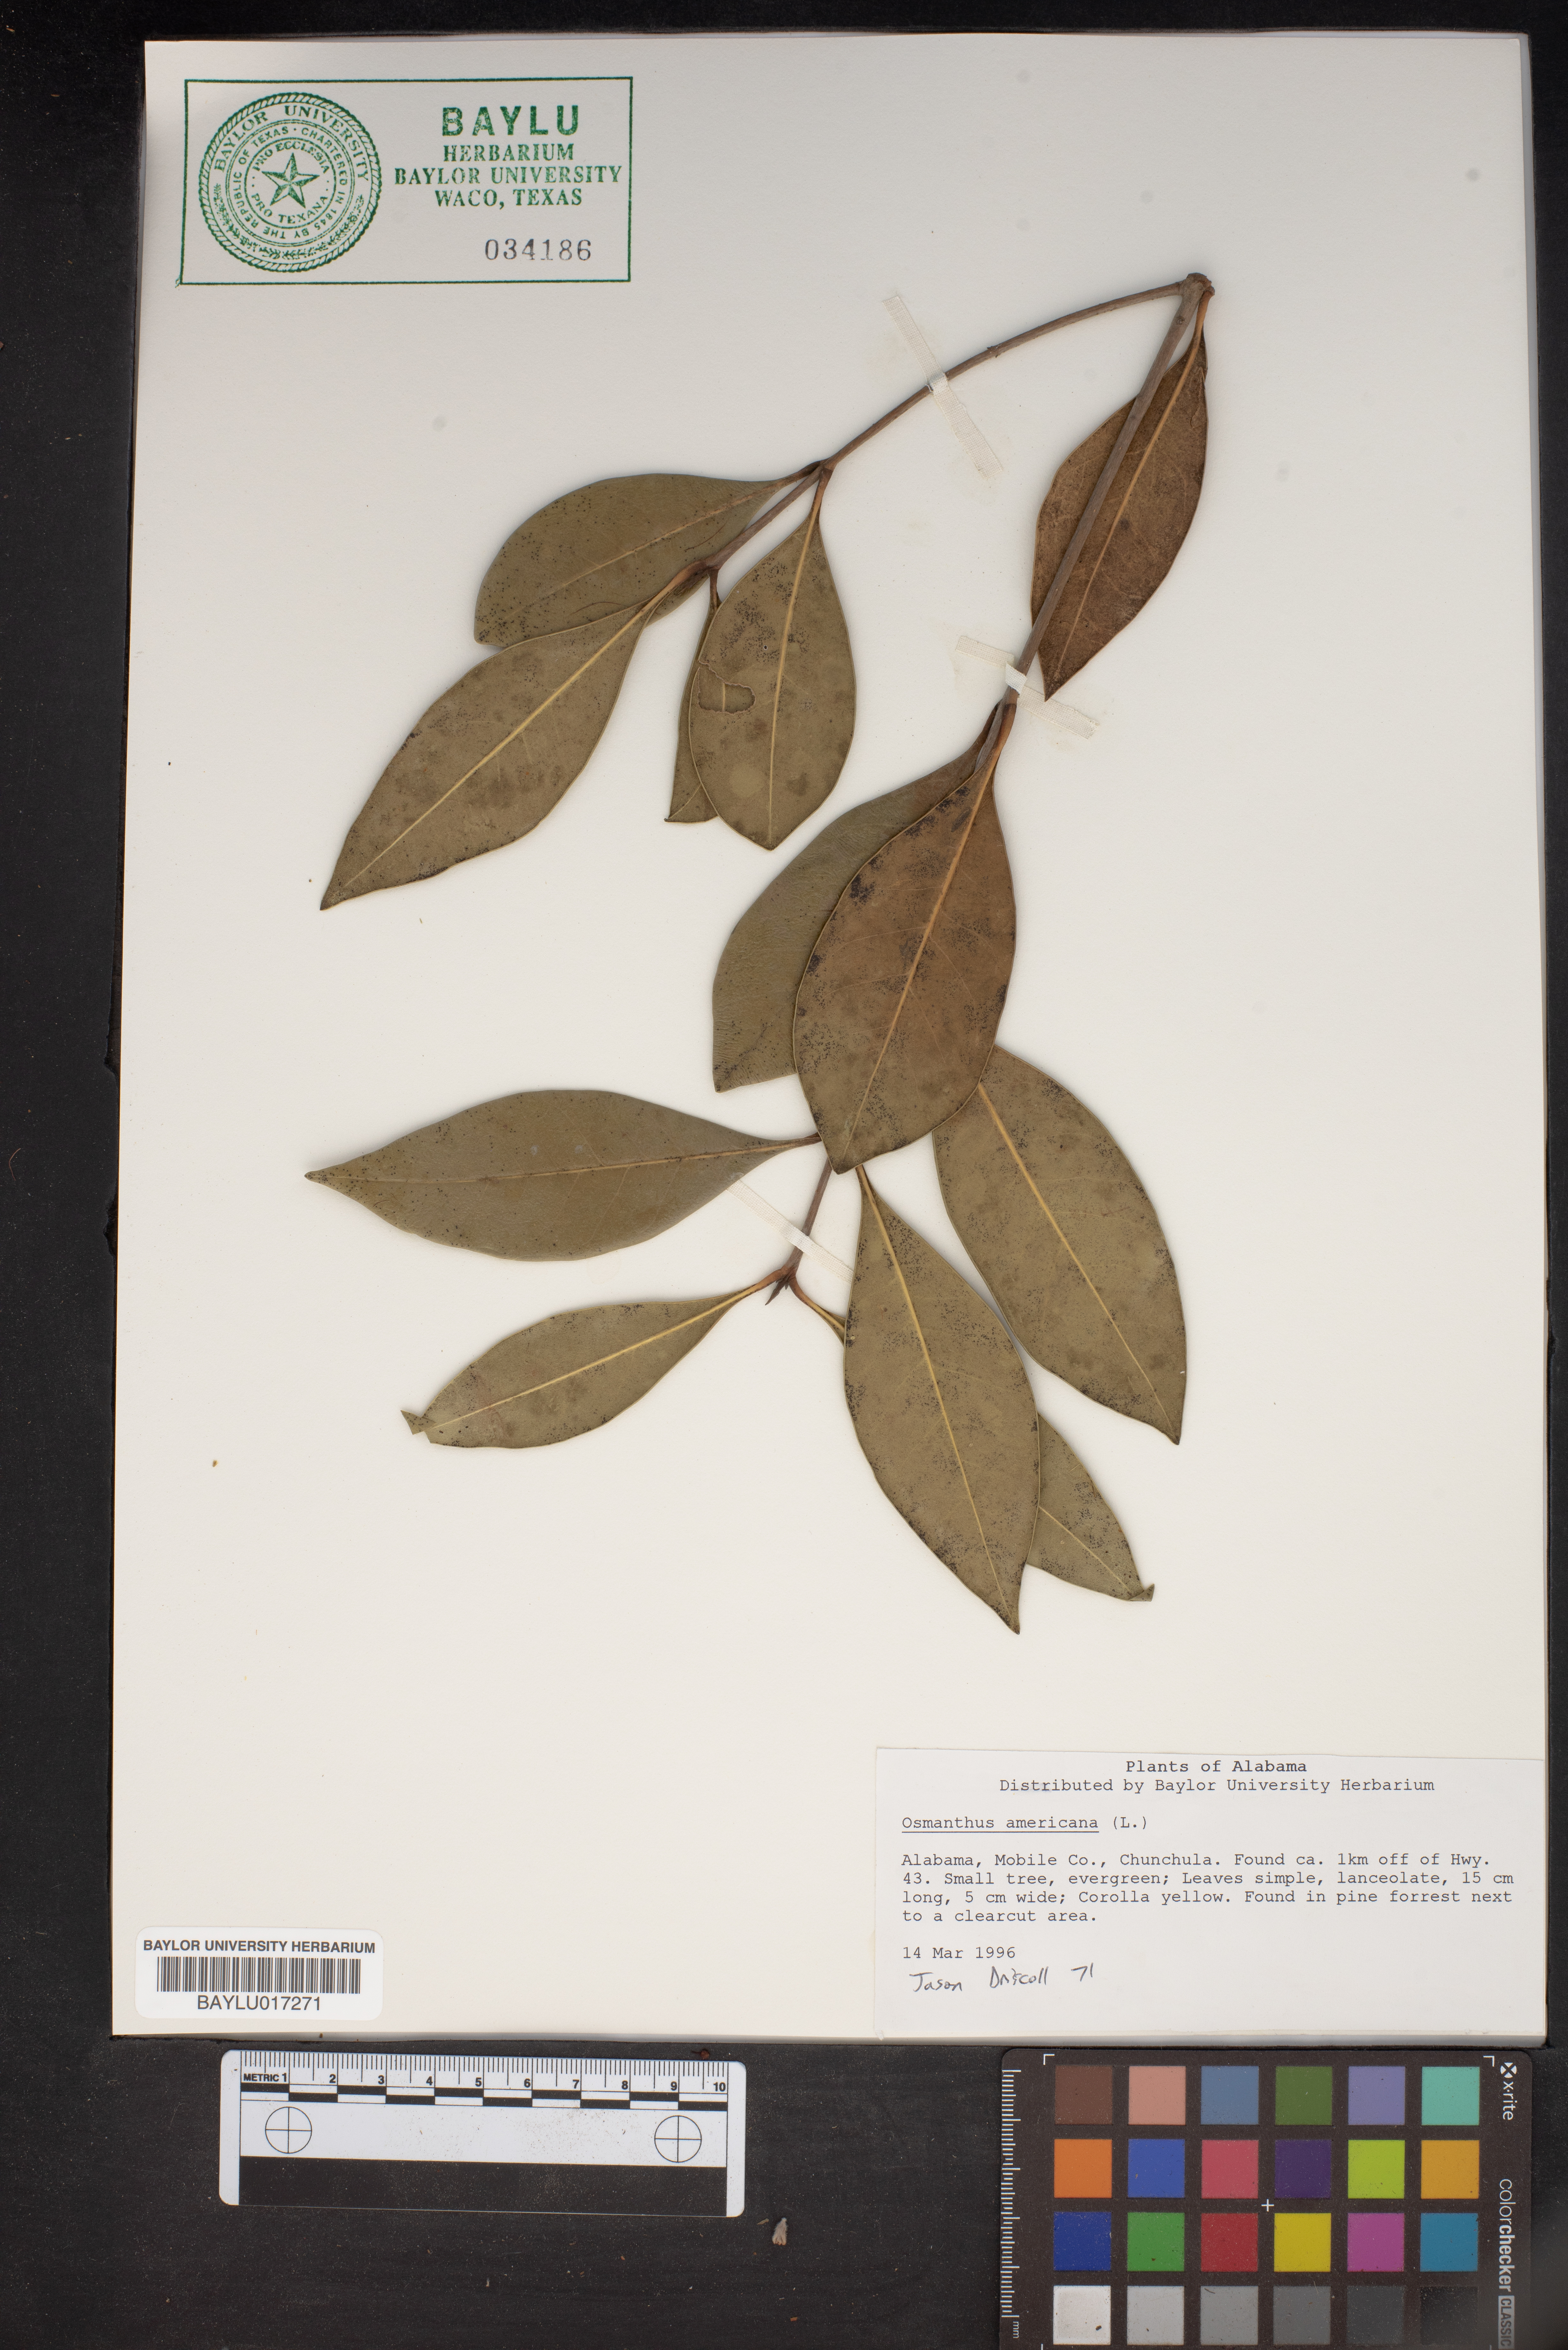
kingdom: Plantae
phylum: Tracheophyta
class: Magnoliopsida
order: Lamiales
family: Oleaceae
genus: Osmanthus
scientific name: Osmanthus americanus
